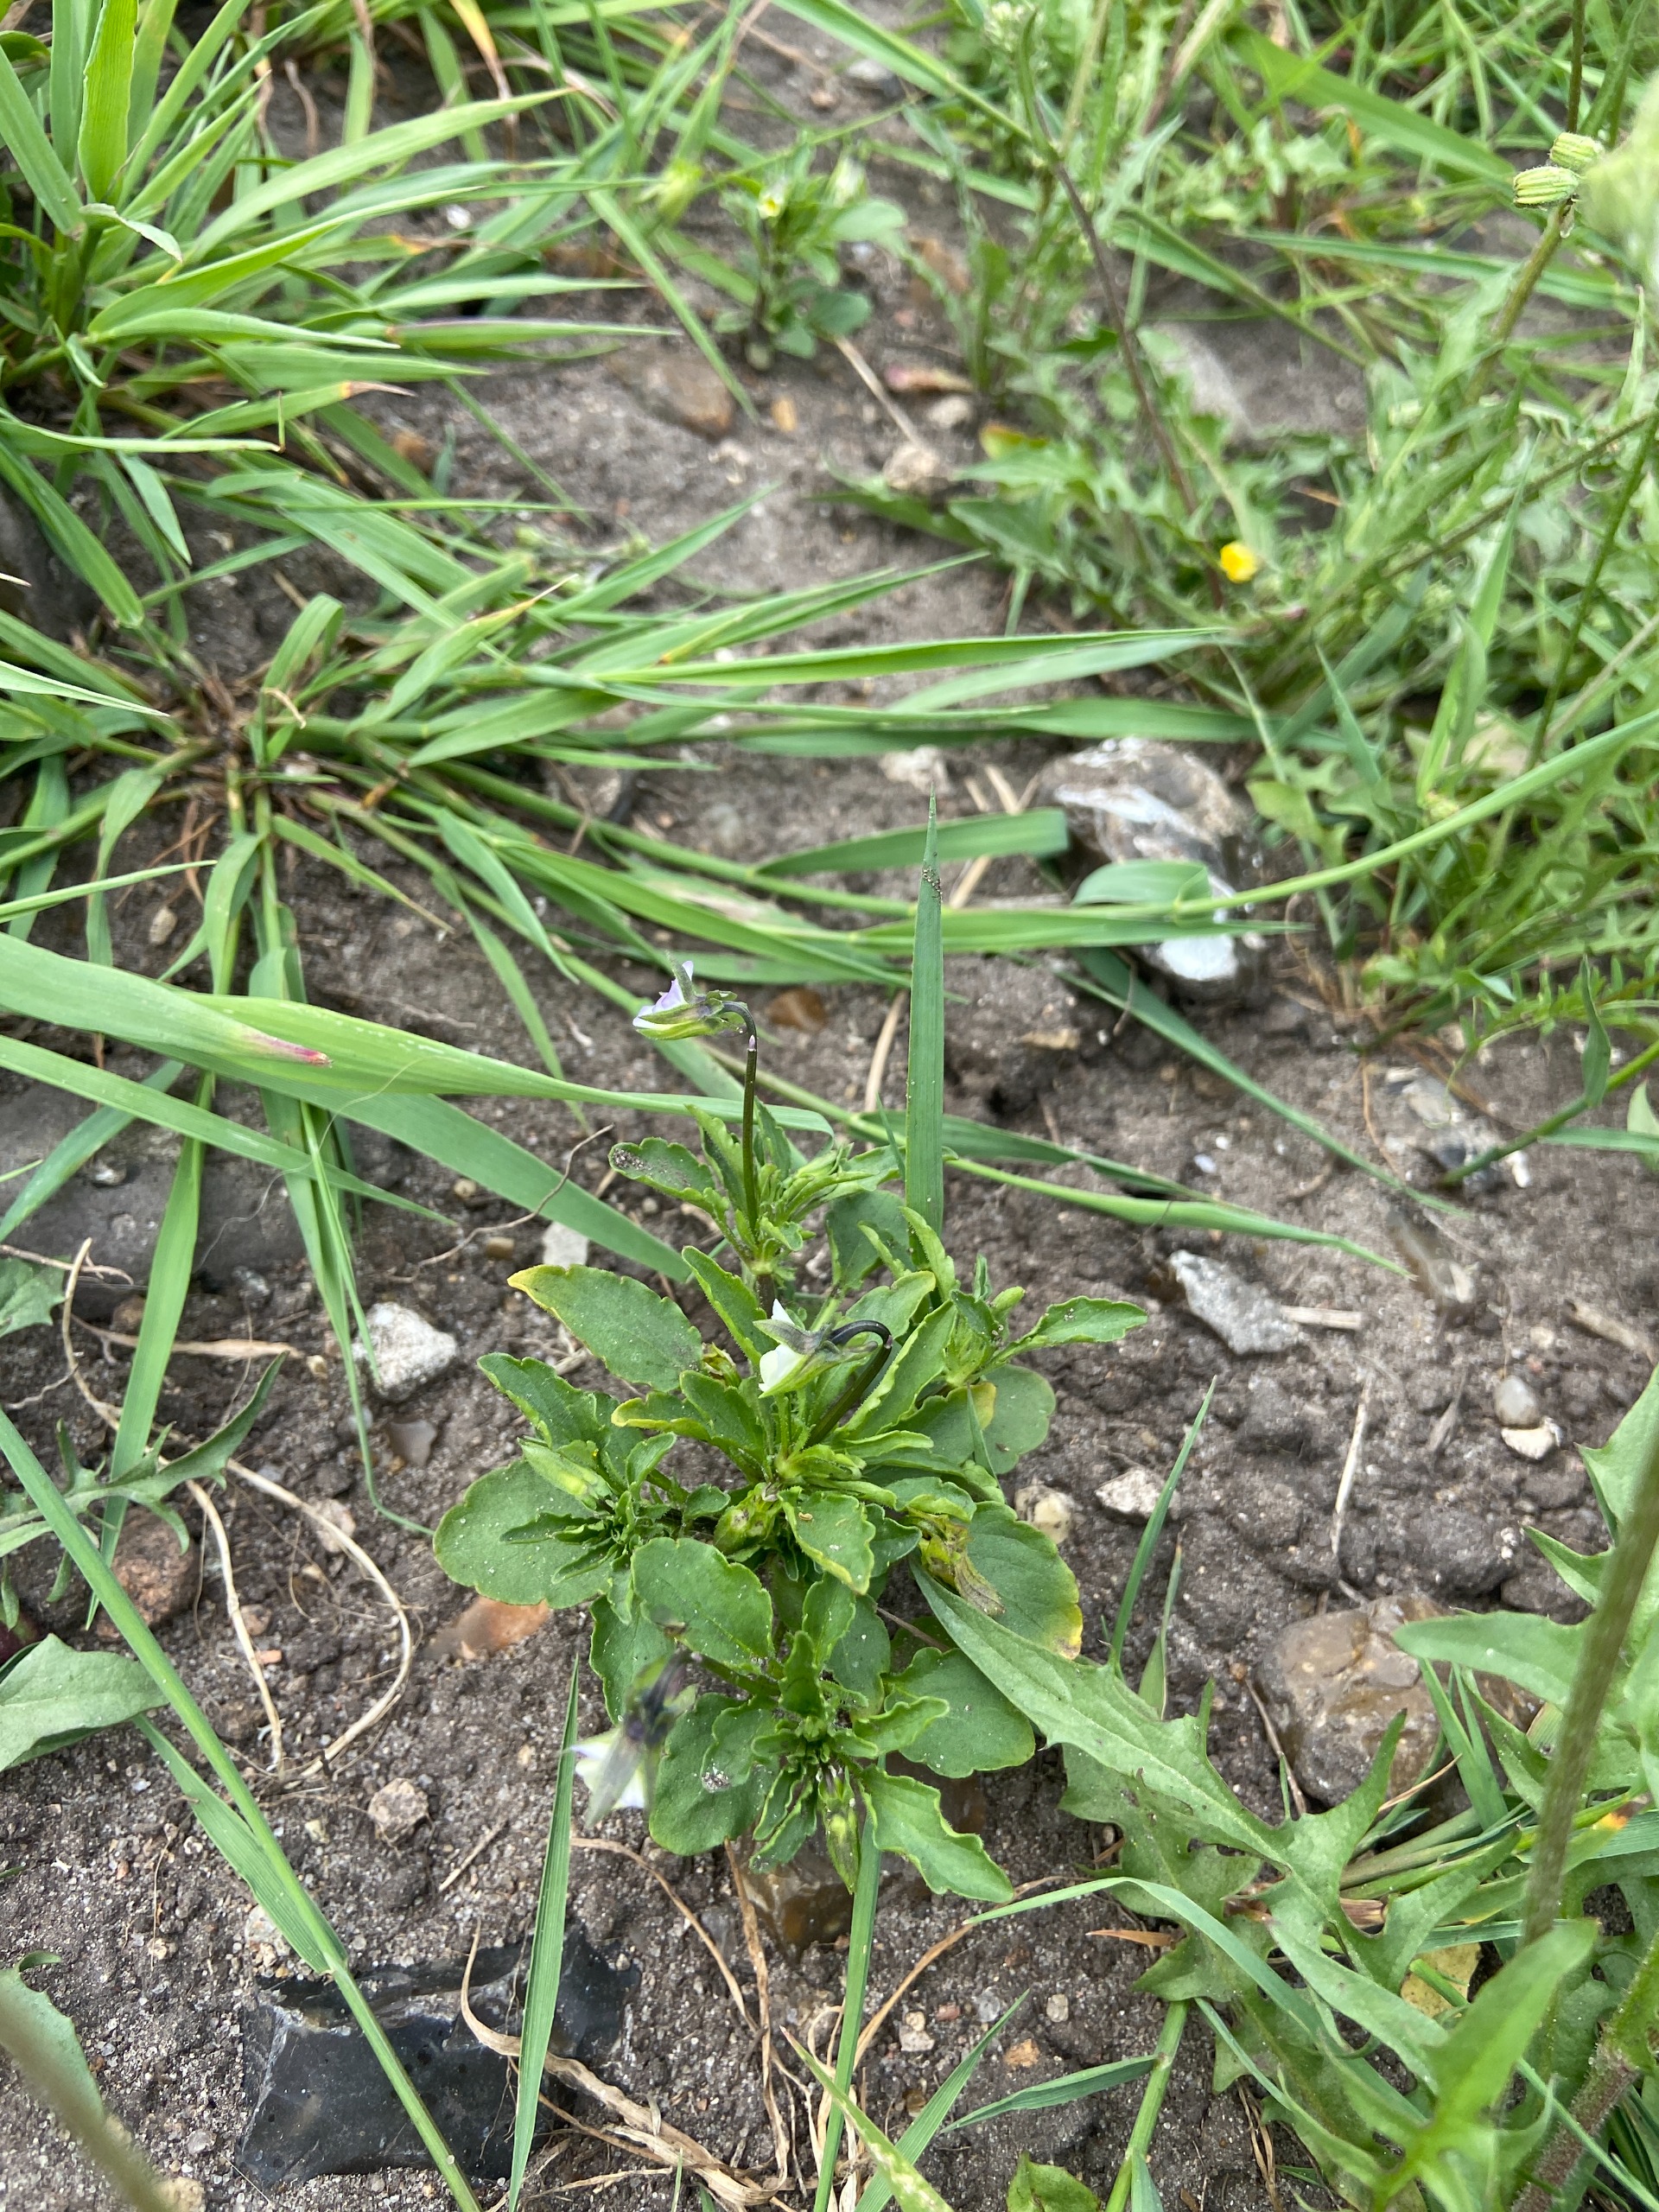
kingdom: Plantae
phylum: Tracheophyta
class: Magnoliopsida
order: Malpighiales
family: Violaceae
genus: Viola
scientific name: Viola arvensis
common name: Ager-stedmoderblomst
